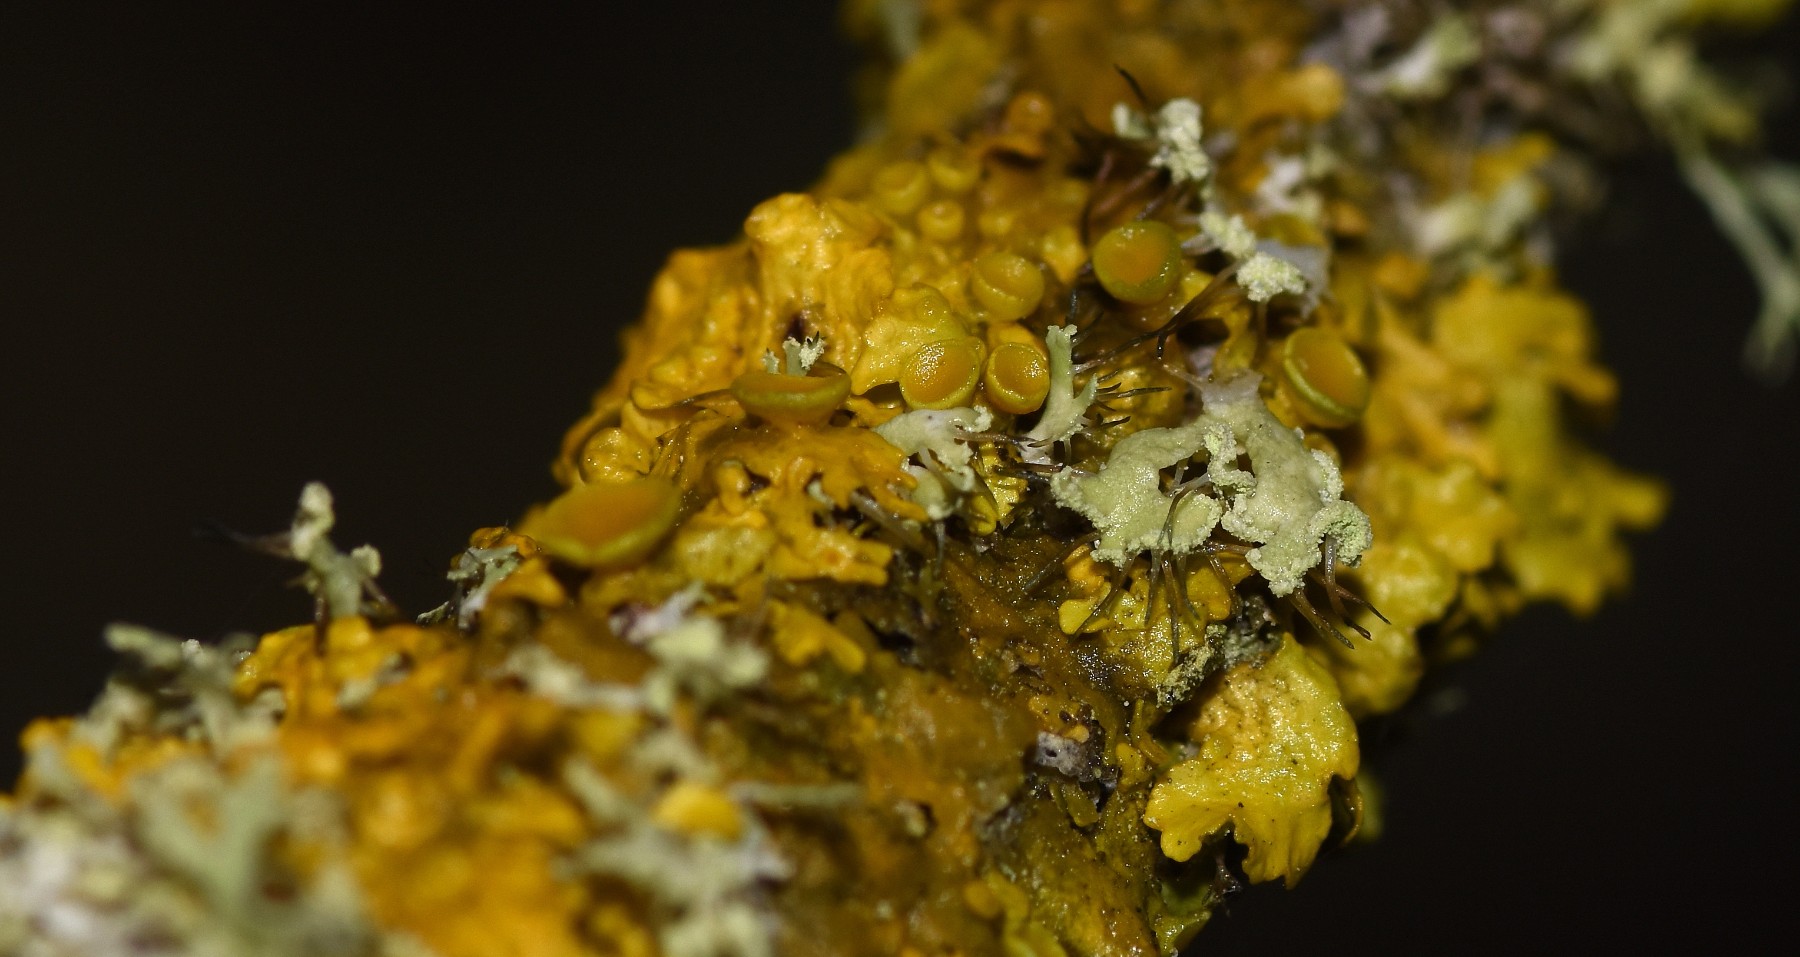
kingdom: Fungi
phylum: Ascomycota
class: Lecanoromycetes
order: Teloschistales
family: Teloschistaceae
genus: Xanthoria
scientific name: Xanthoria parietina
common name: almindelig væggelav
